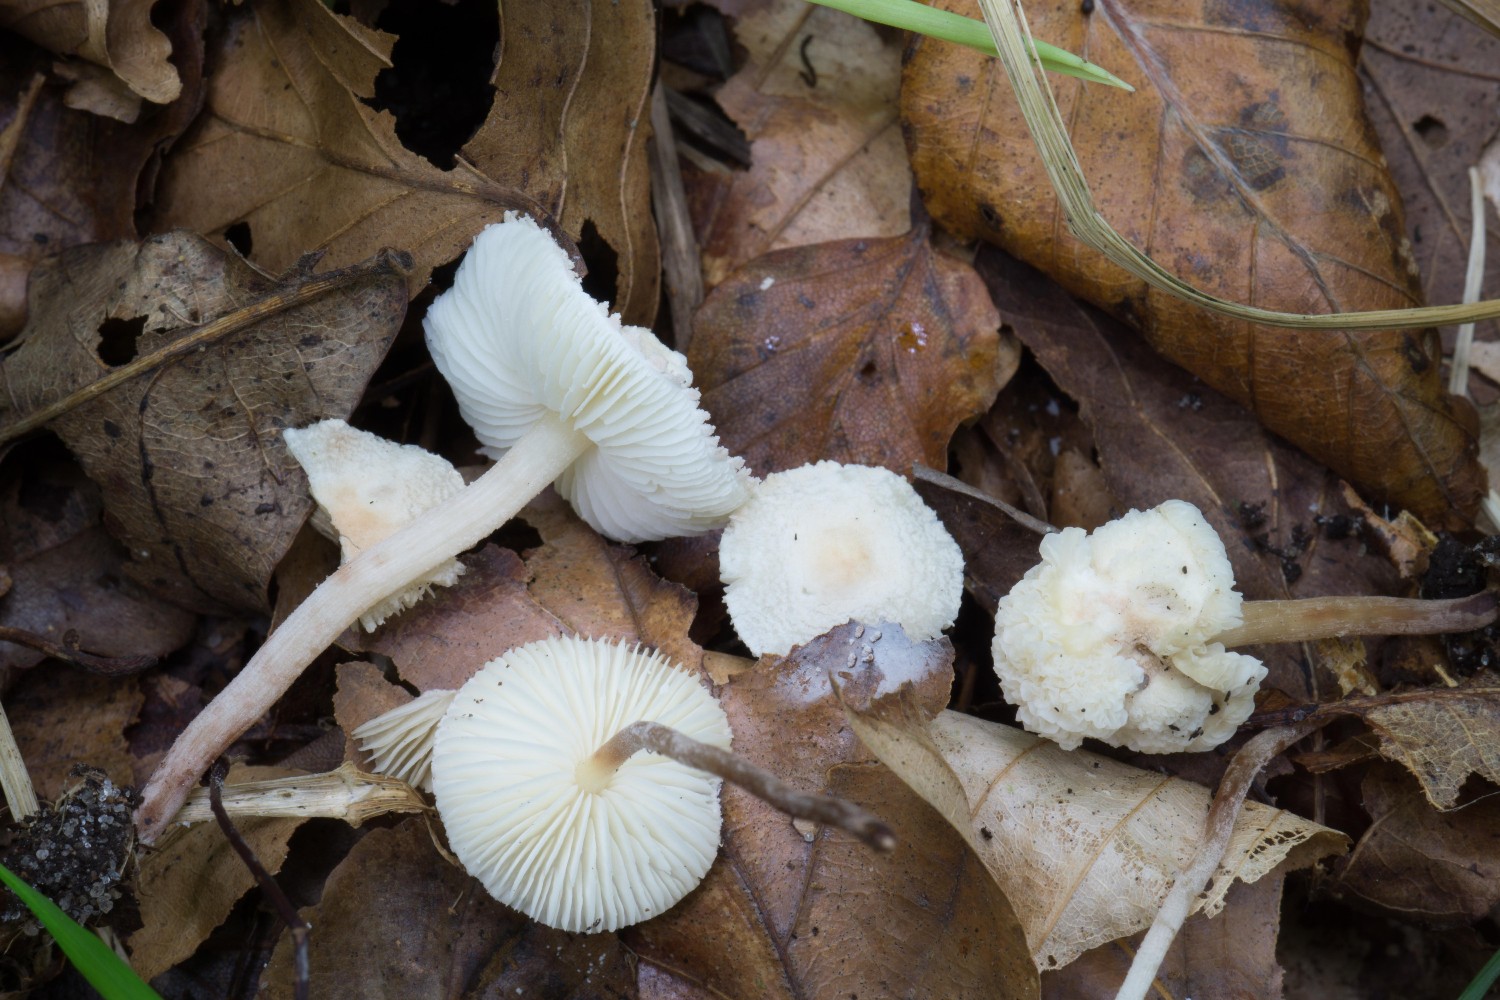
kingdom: Fungi
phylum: Basidiomycota
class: Agaricomycetes
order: Agaricales
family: Agaricaceae
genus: Cystolepiota
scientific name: Cystolepiota seminuda
